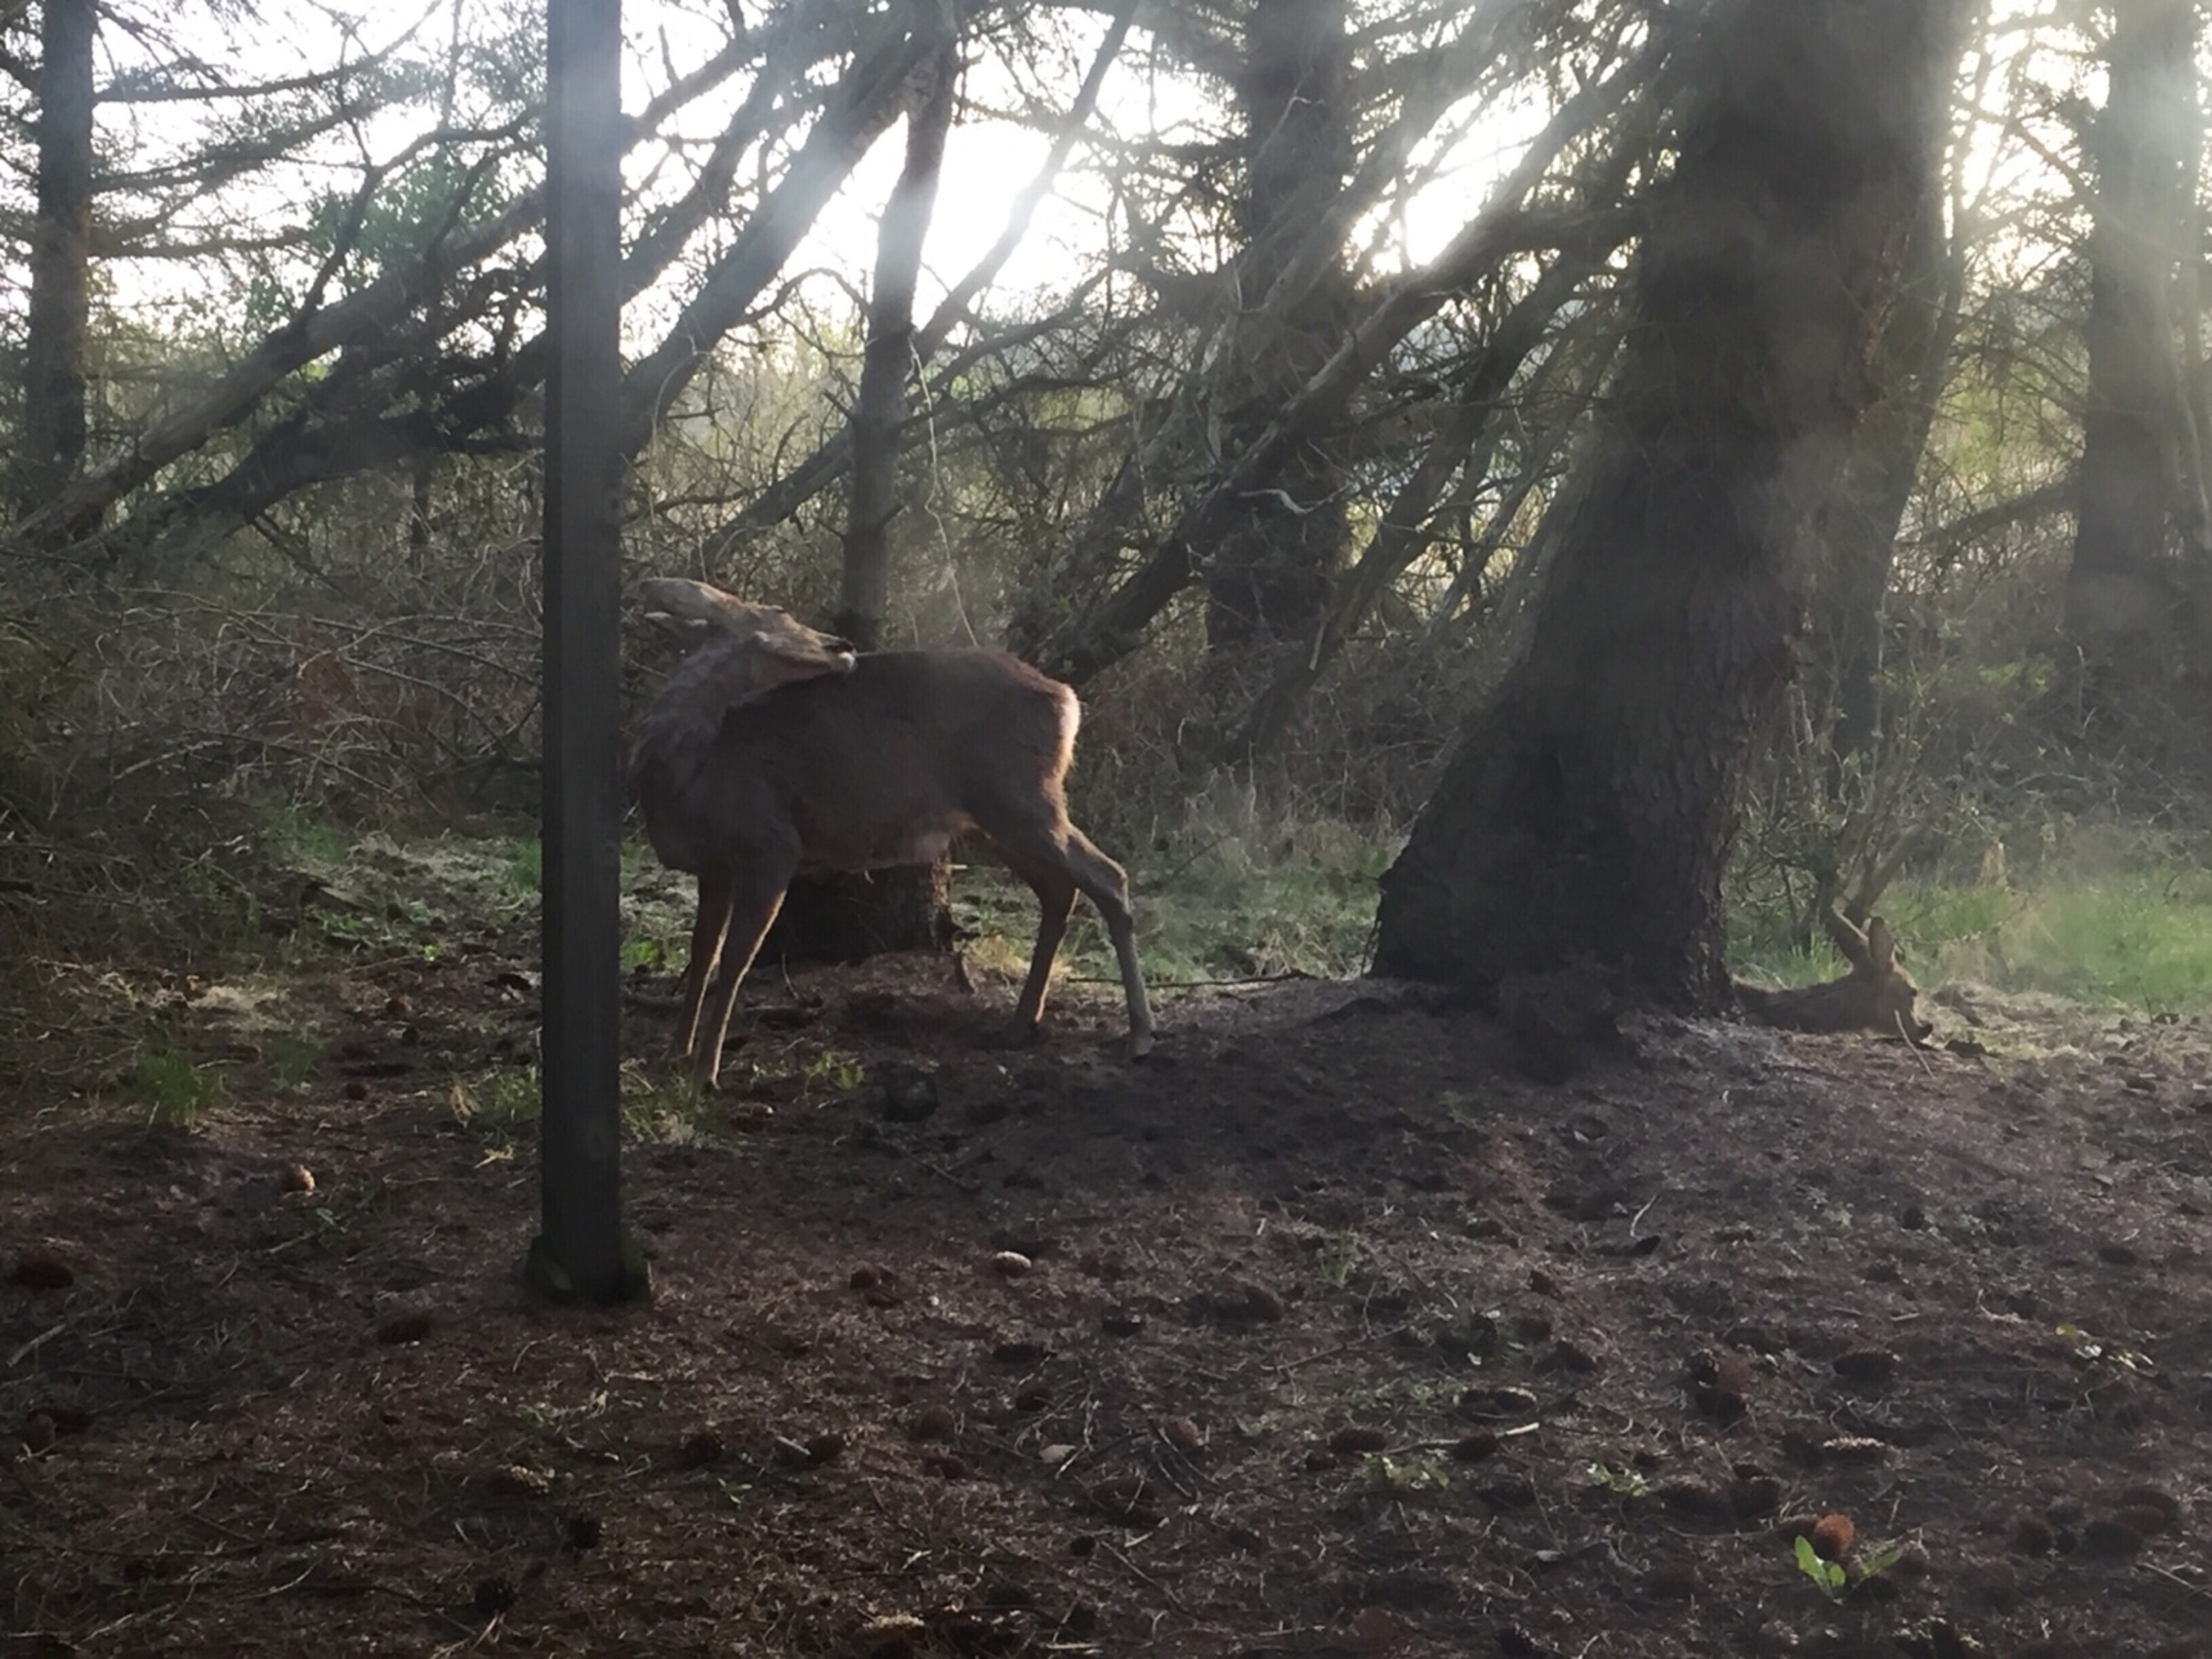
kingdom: Animalia
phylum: Chordata
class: Mammalia
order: Artiodactyla
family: Cervidae
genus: Capreolus
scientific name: Capreolus capreolus
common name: Rådyr
